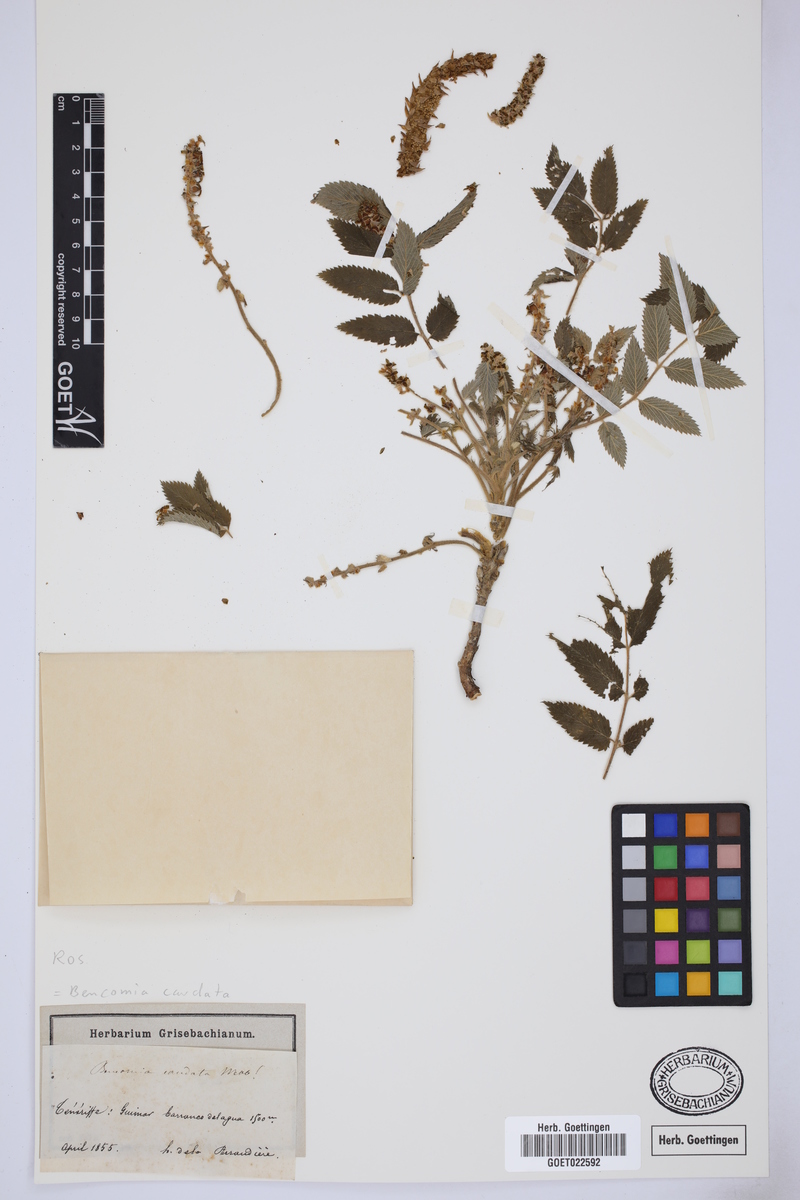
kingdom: Plantae
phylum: Tracheophyta
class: Magnoliopsida
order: Rosales
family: Rosaceae
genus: Bencomia
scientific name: Bencomia caudata
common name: Bencomia
